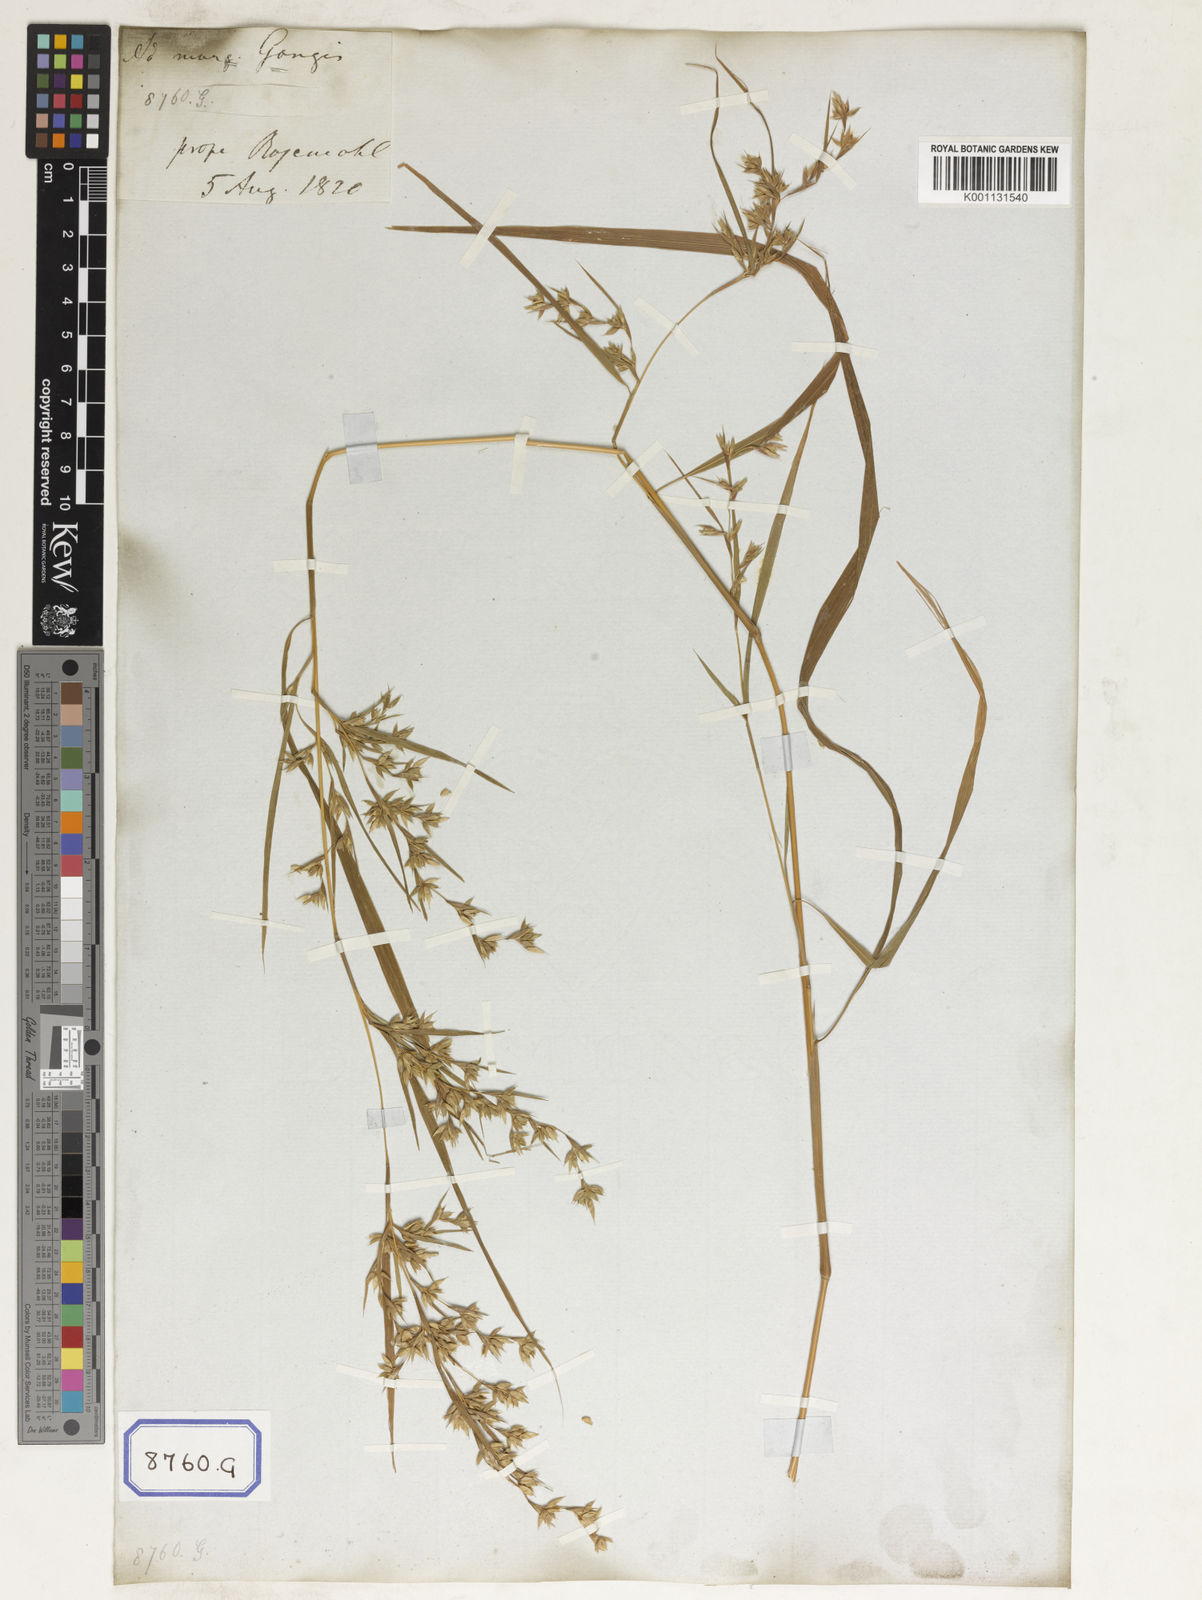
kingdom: Plantae
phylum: Tracheophyta
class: Liliopsida
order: Poales
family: Poaceae
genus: Apluda
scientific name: Apluda
